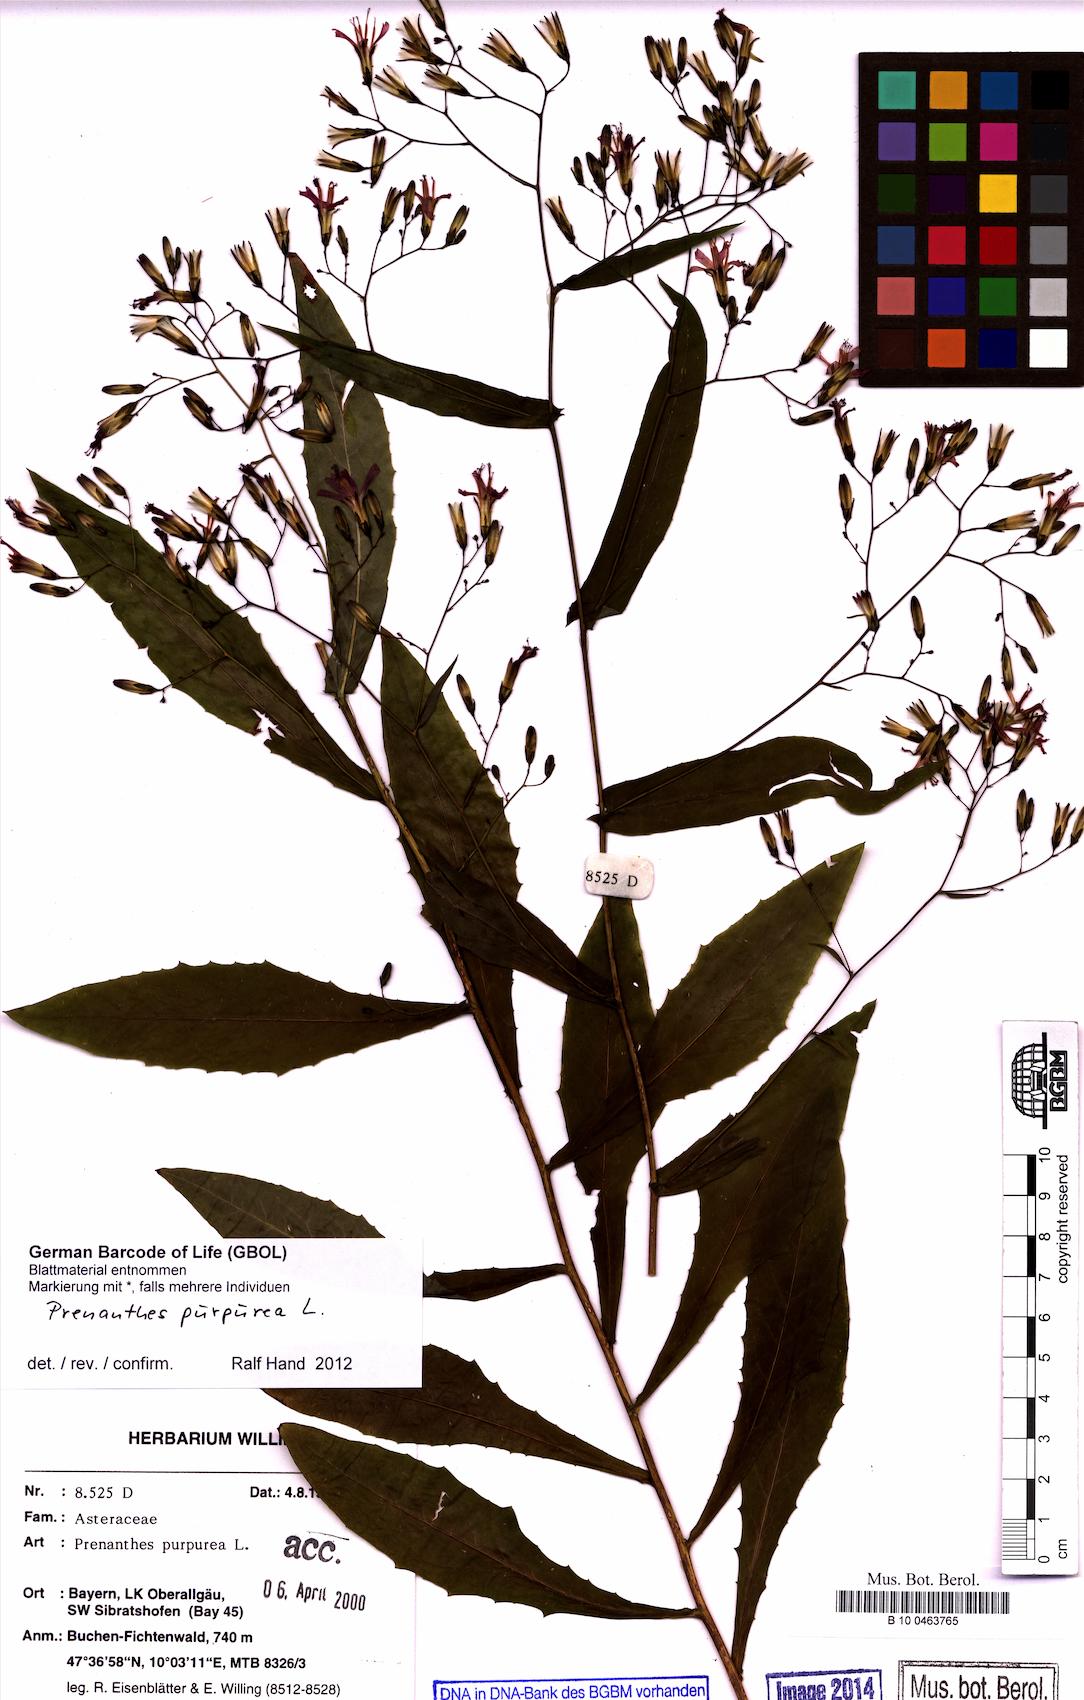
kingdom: Plantae
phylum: Tracheophyta
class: Magnoliopsida
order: Asterales
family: Asteraceae
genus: Prenanthes
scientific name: Prenanthes purpurea
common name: Purple lettuce
